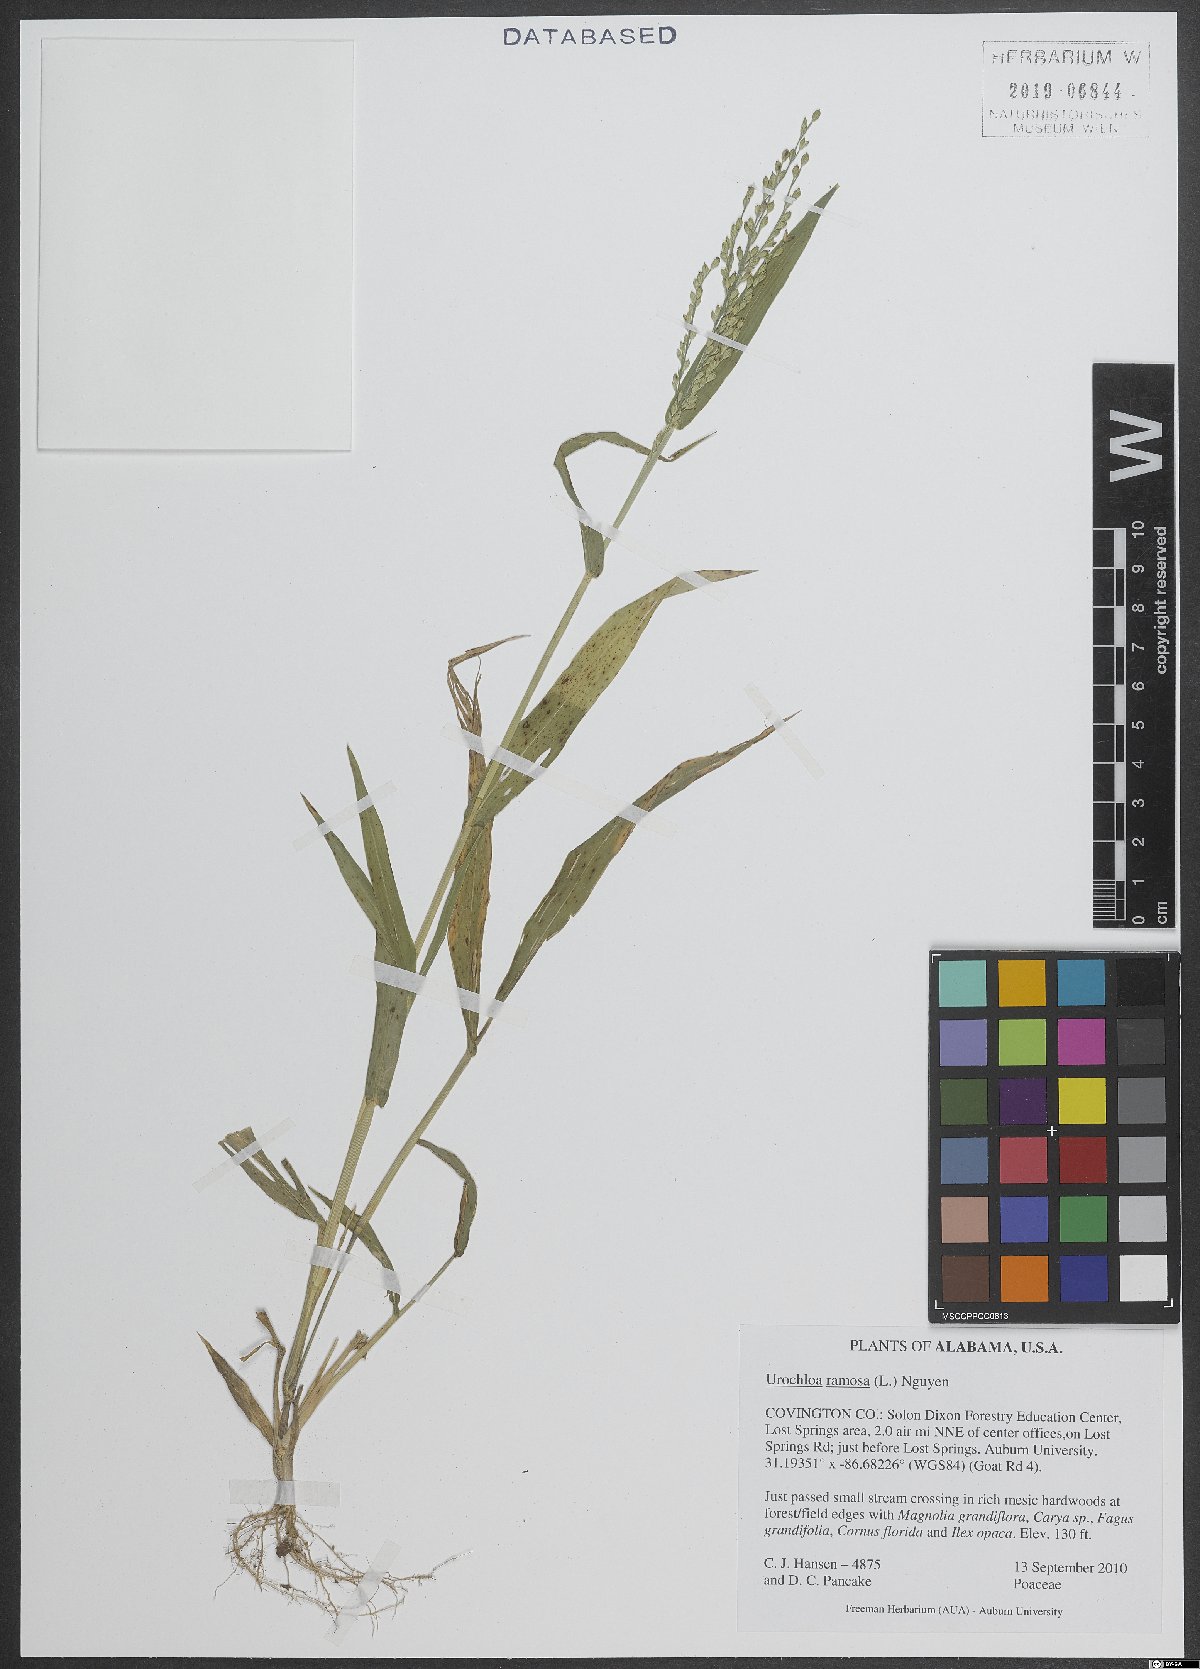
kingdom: Plantae
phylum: Tracheophyta
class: Liliopsida
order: Poales
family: Poaceae
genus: Urochloa
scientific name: Urochloa ramosa
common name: Browntop millet
